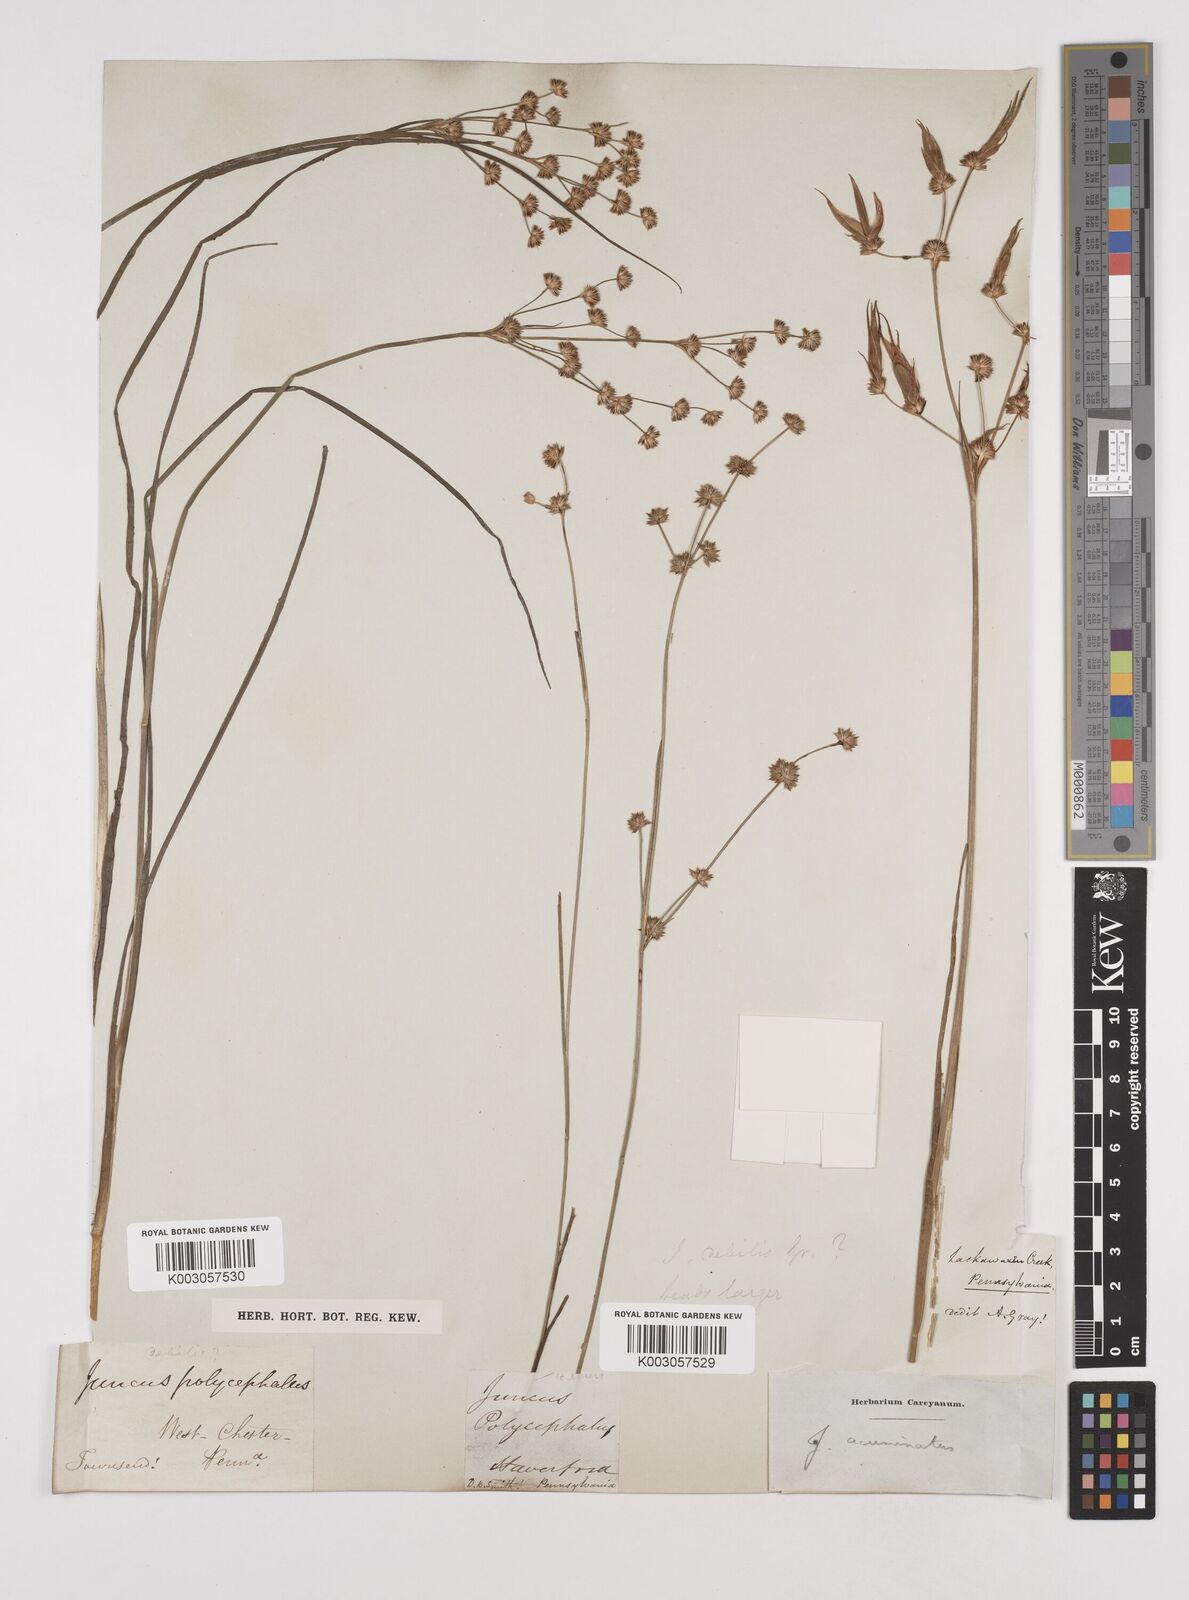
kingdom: Plantae
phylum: Tracheophyta
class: Liliopsida
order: Poales
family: Juncaceae
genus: Juncus
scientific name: Juncus acuminatus
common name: Knotty-leaved rush
